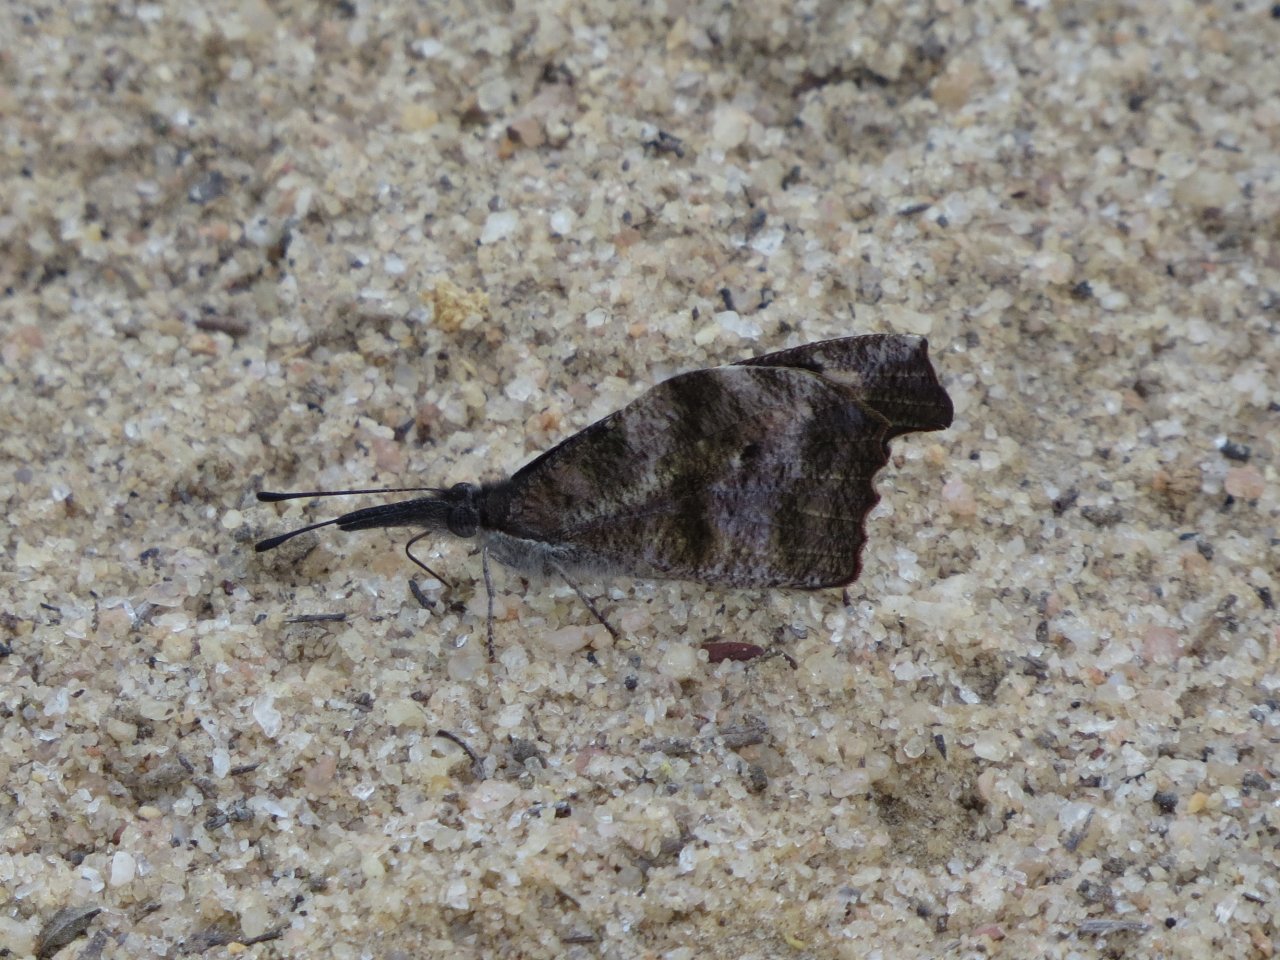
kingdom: Animalia
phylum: Arthropoda
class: Insecta
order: Lepidoptera
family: Nymphalidae
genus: Libytheana
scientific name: Libytheana carinenta
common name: American Snout
